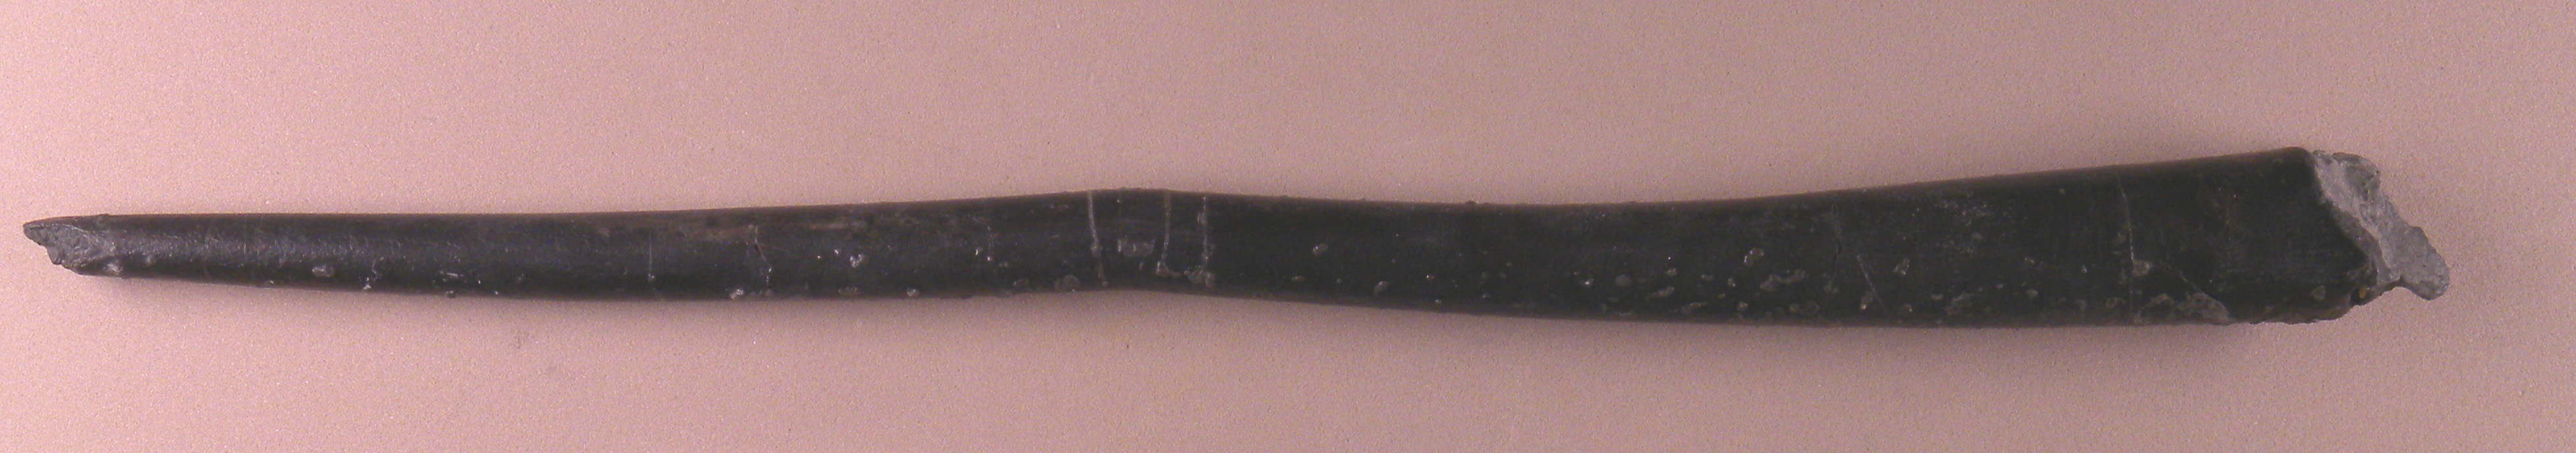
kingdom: Animalia
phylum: Mollusca
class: Cephalopoda
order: Belemnitida
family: Megateuthididae
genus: Dactyloteuthis
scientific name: Dactyloteuthis semistriata
